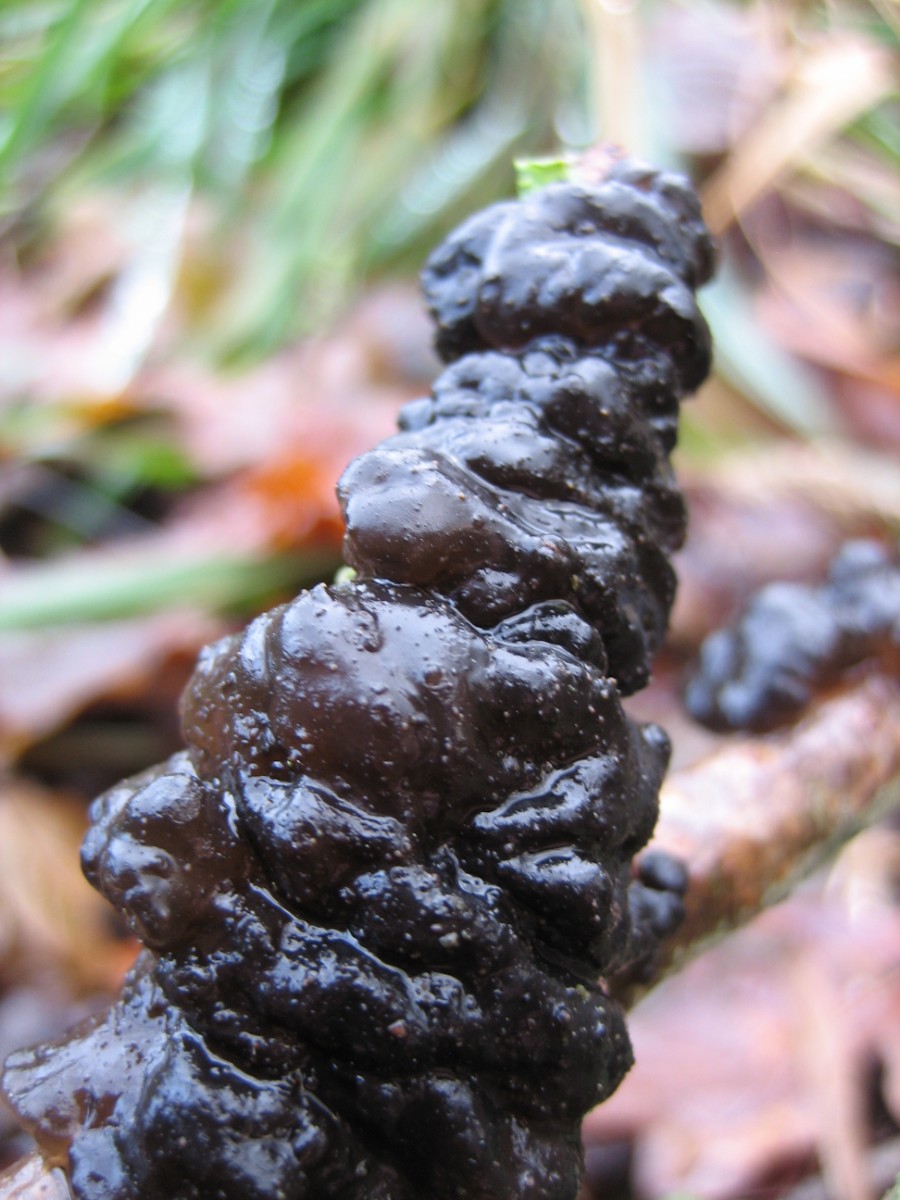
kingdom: Fungi
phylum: Basidiomycota
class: Agaricomycetes
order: Auriculariales
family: Auriculariaceae
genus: Exidia
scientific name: Exidia nigricans
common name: almindelig bævretop
